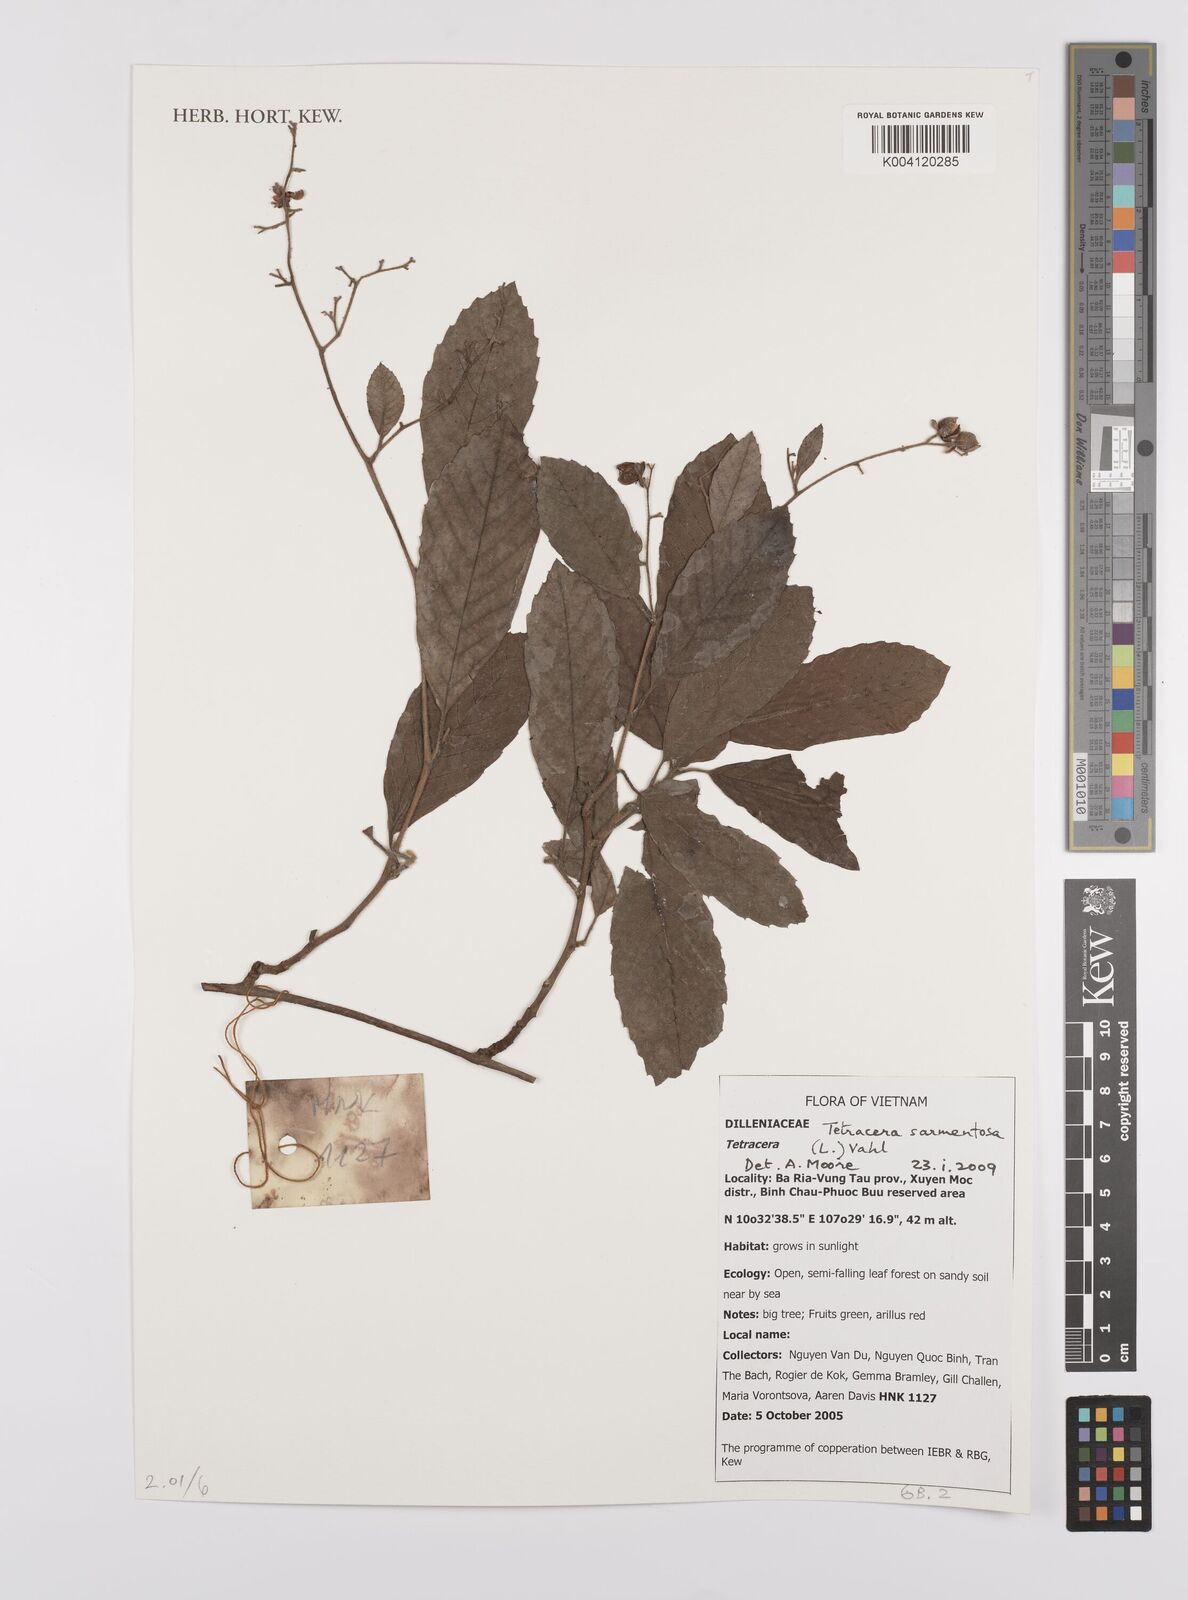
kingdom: Plantae
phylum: Tracheophyta
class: Magnoliopsida
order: Dilleniales
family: Dilleniaceae
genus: Tetracera
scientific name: Tetracera sarmentosa
